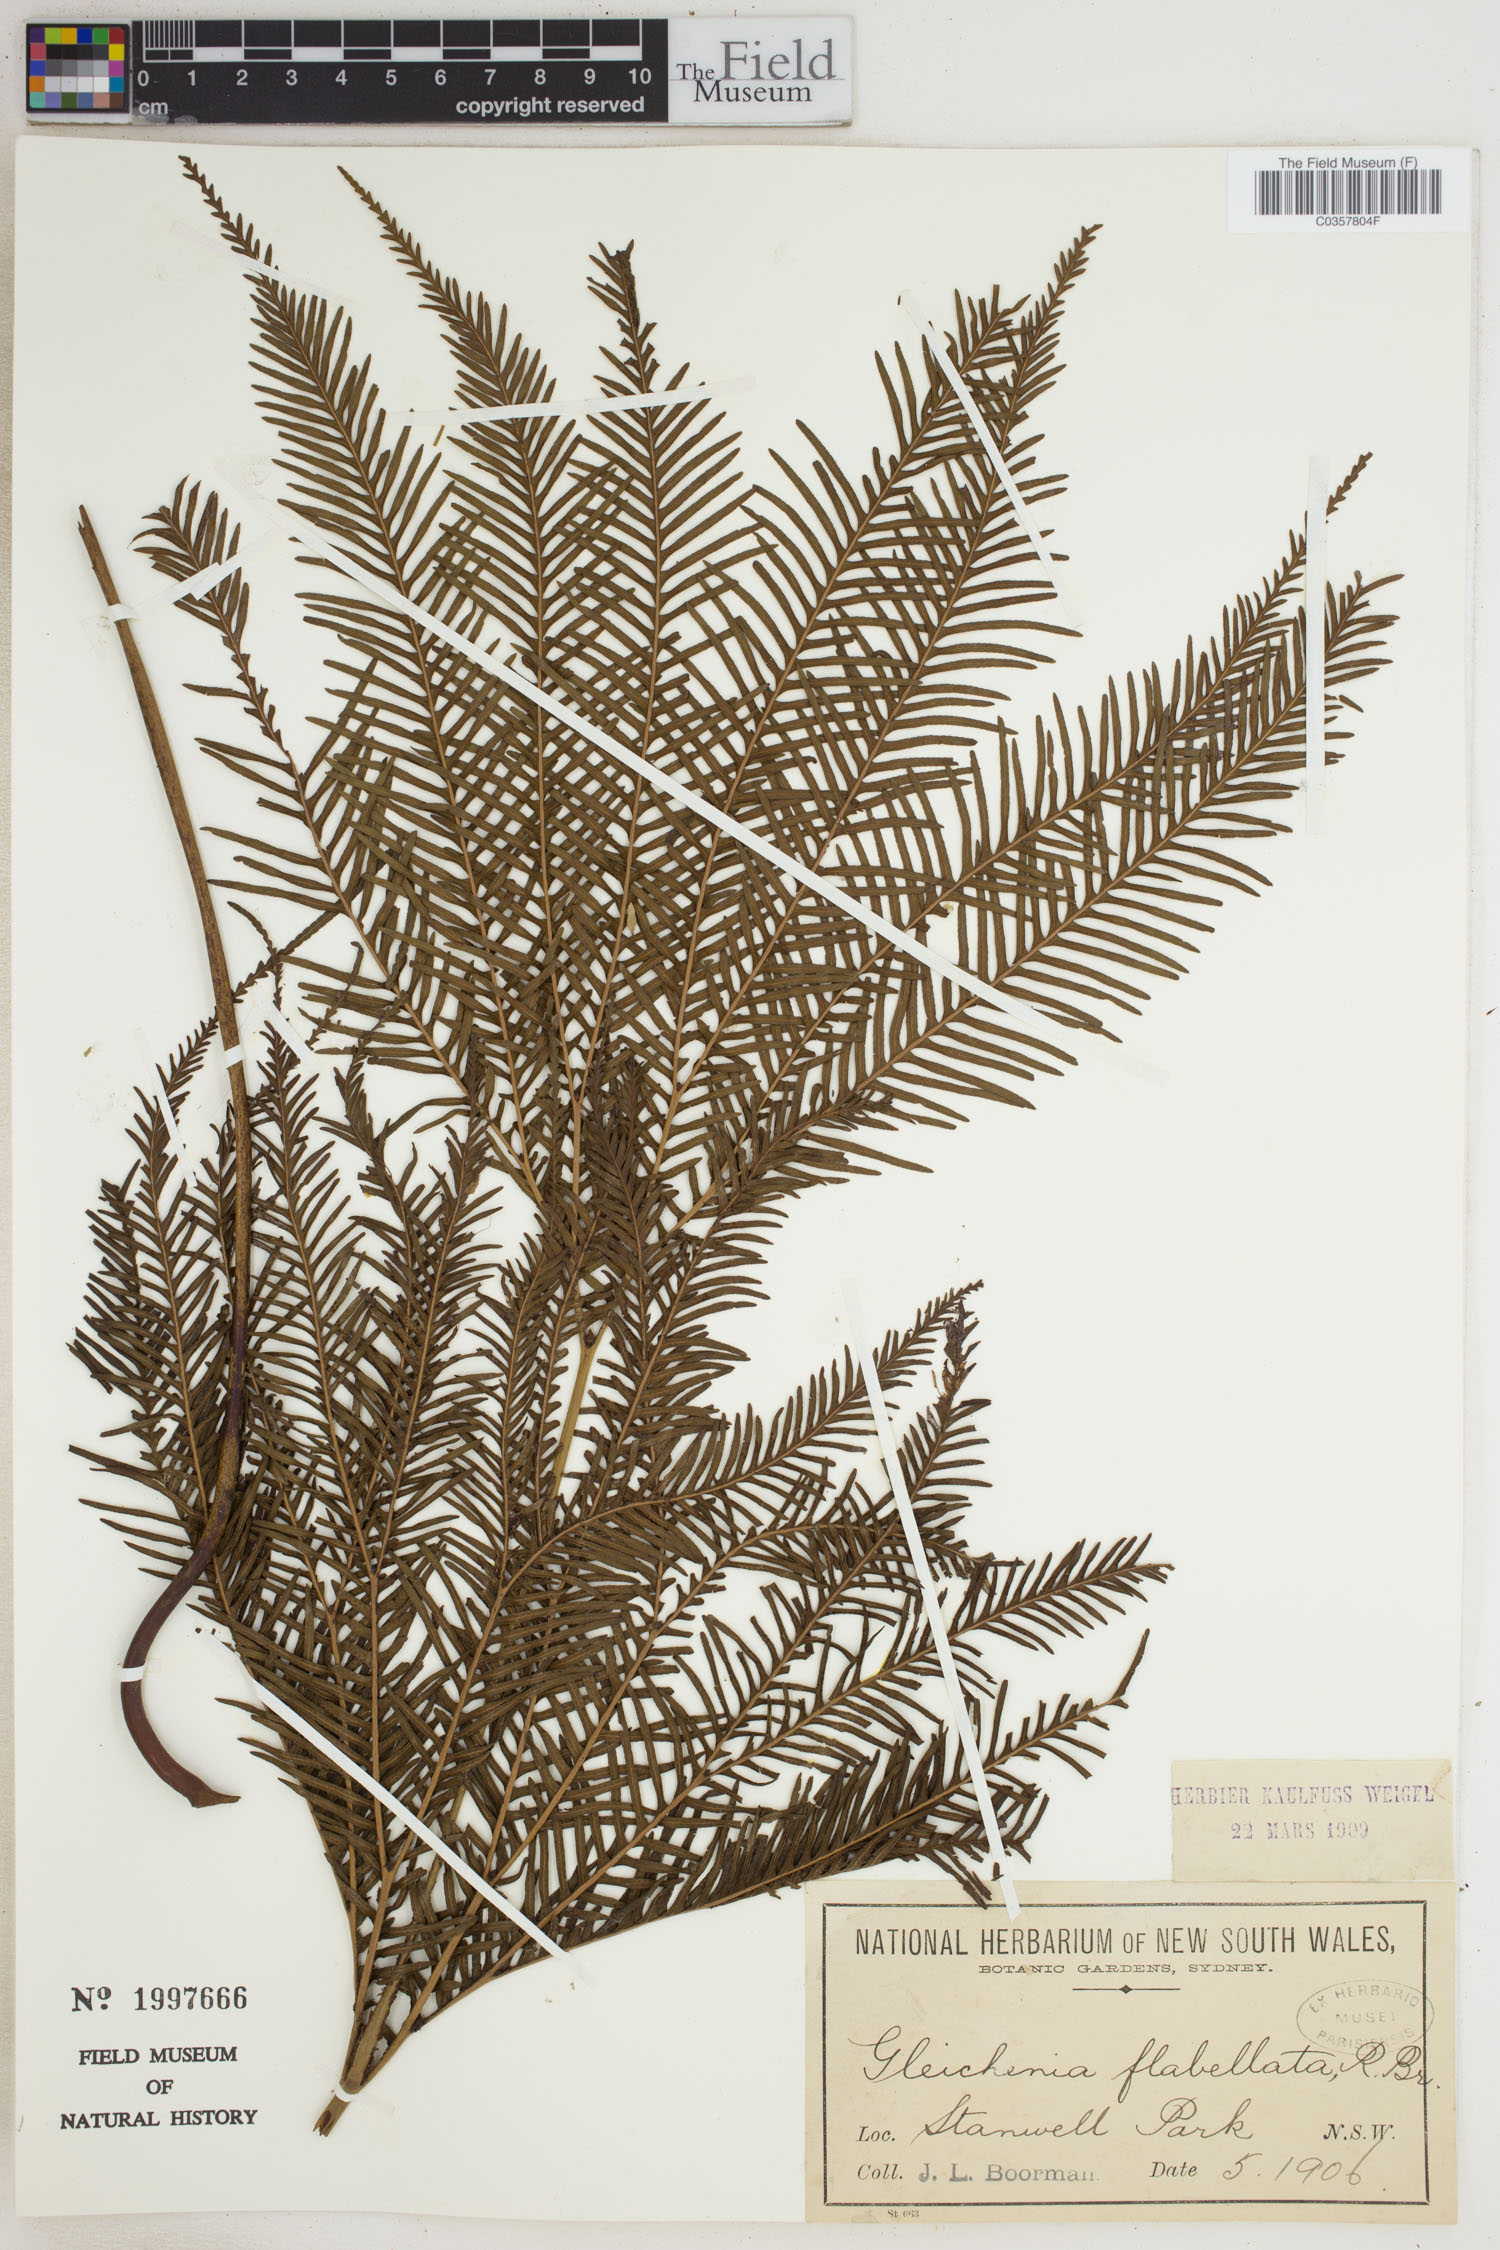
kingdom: Plantae
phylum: Tracheophyta
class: Polypodiopsida
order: Gleicheniales
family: Gleicheniaceae
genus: Sticherus
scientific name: Sticherus flabellatus
